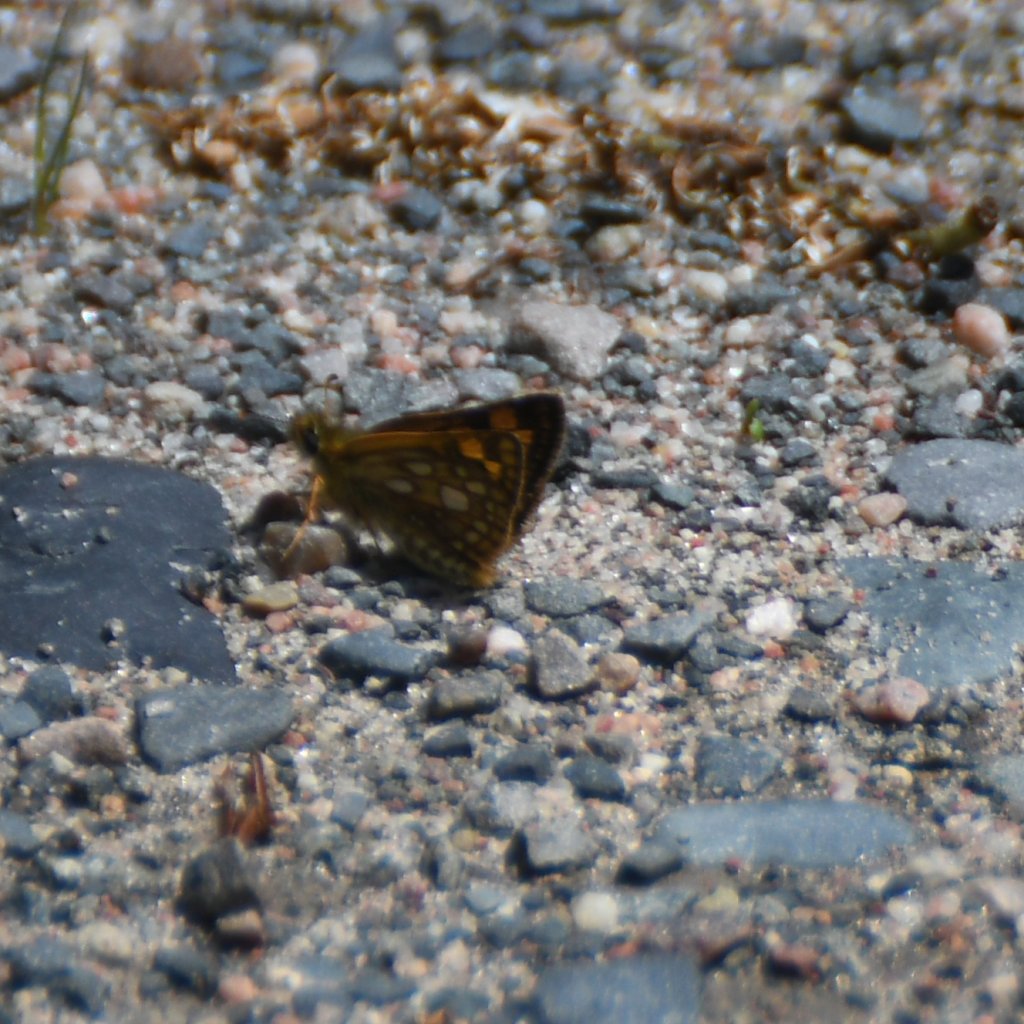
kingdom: Animalia
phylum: Arthropoda
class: Insecta
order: Lepidoptera
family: Hesperiidae
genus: Carterocephalus
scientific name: Carterocephalus palaemon
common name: Chequered Skipper
